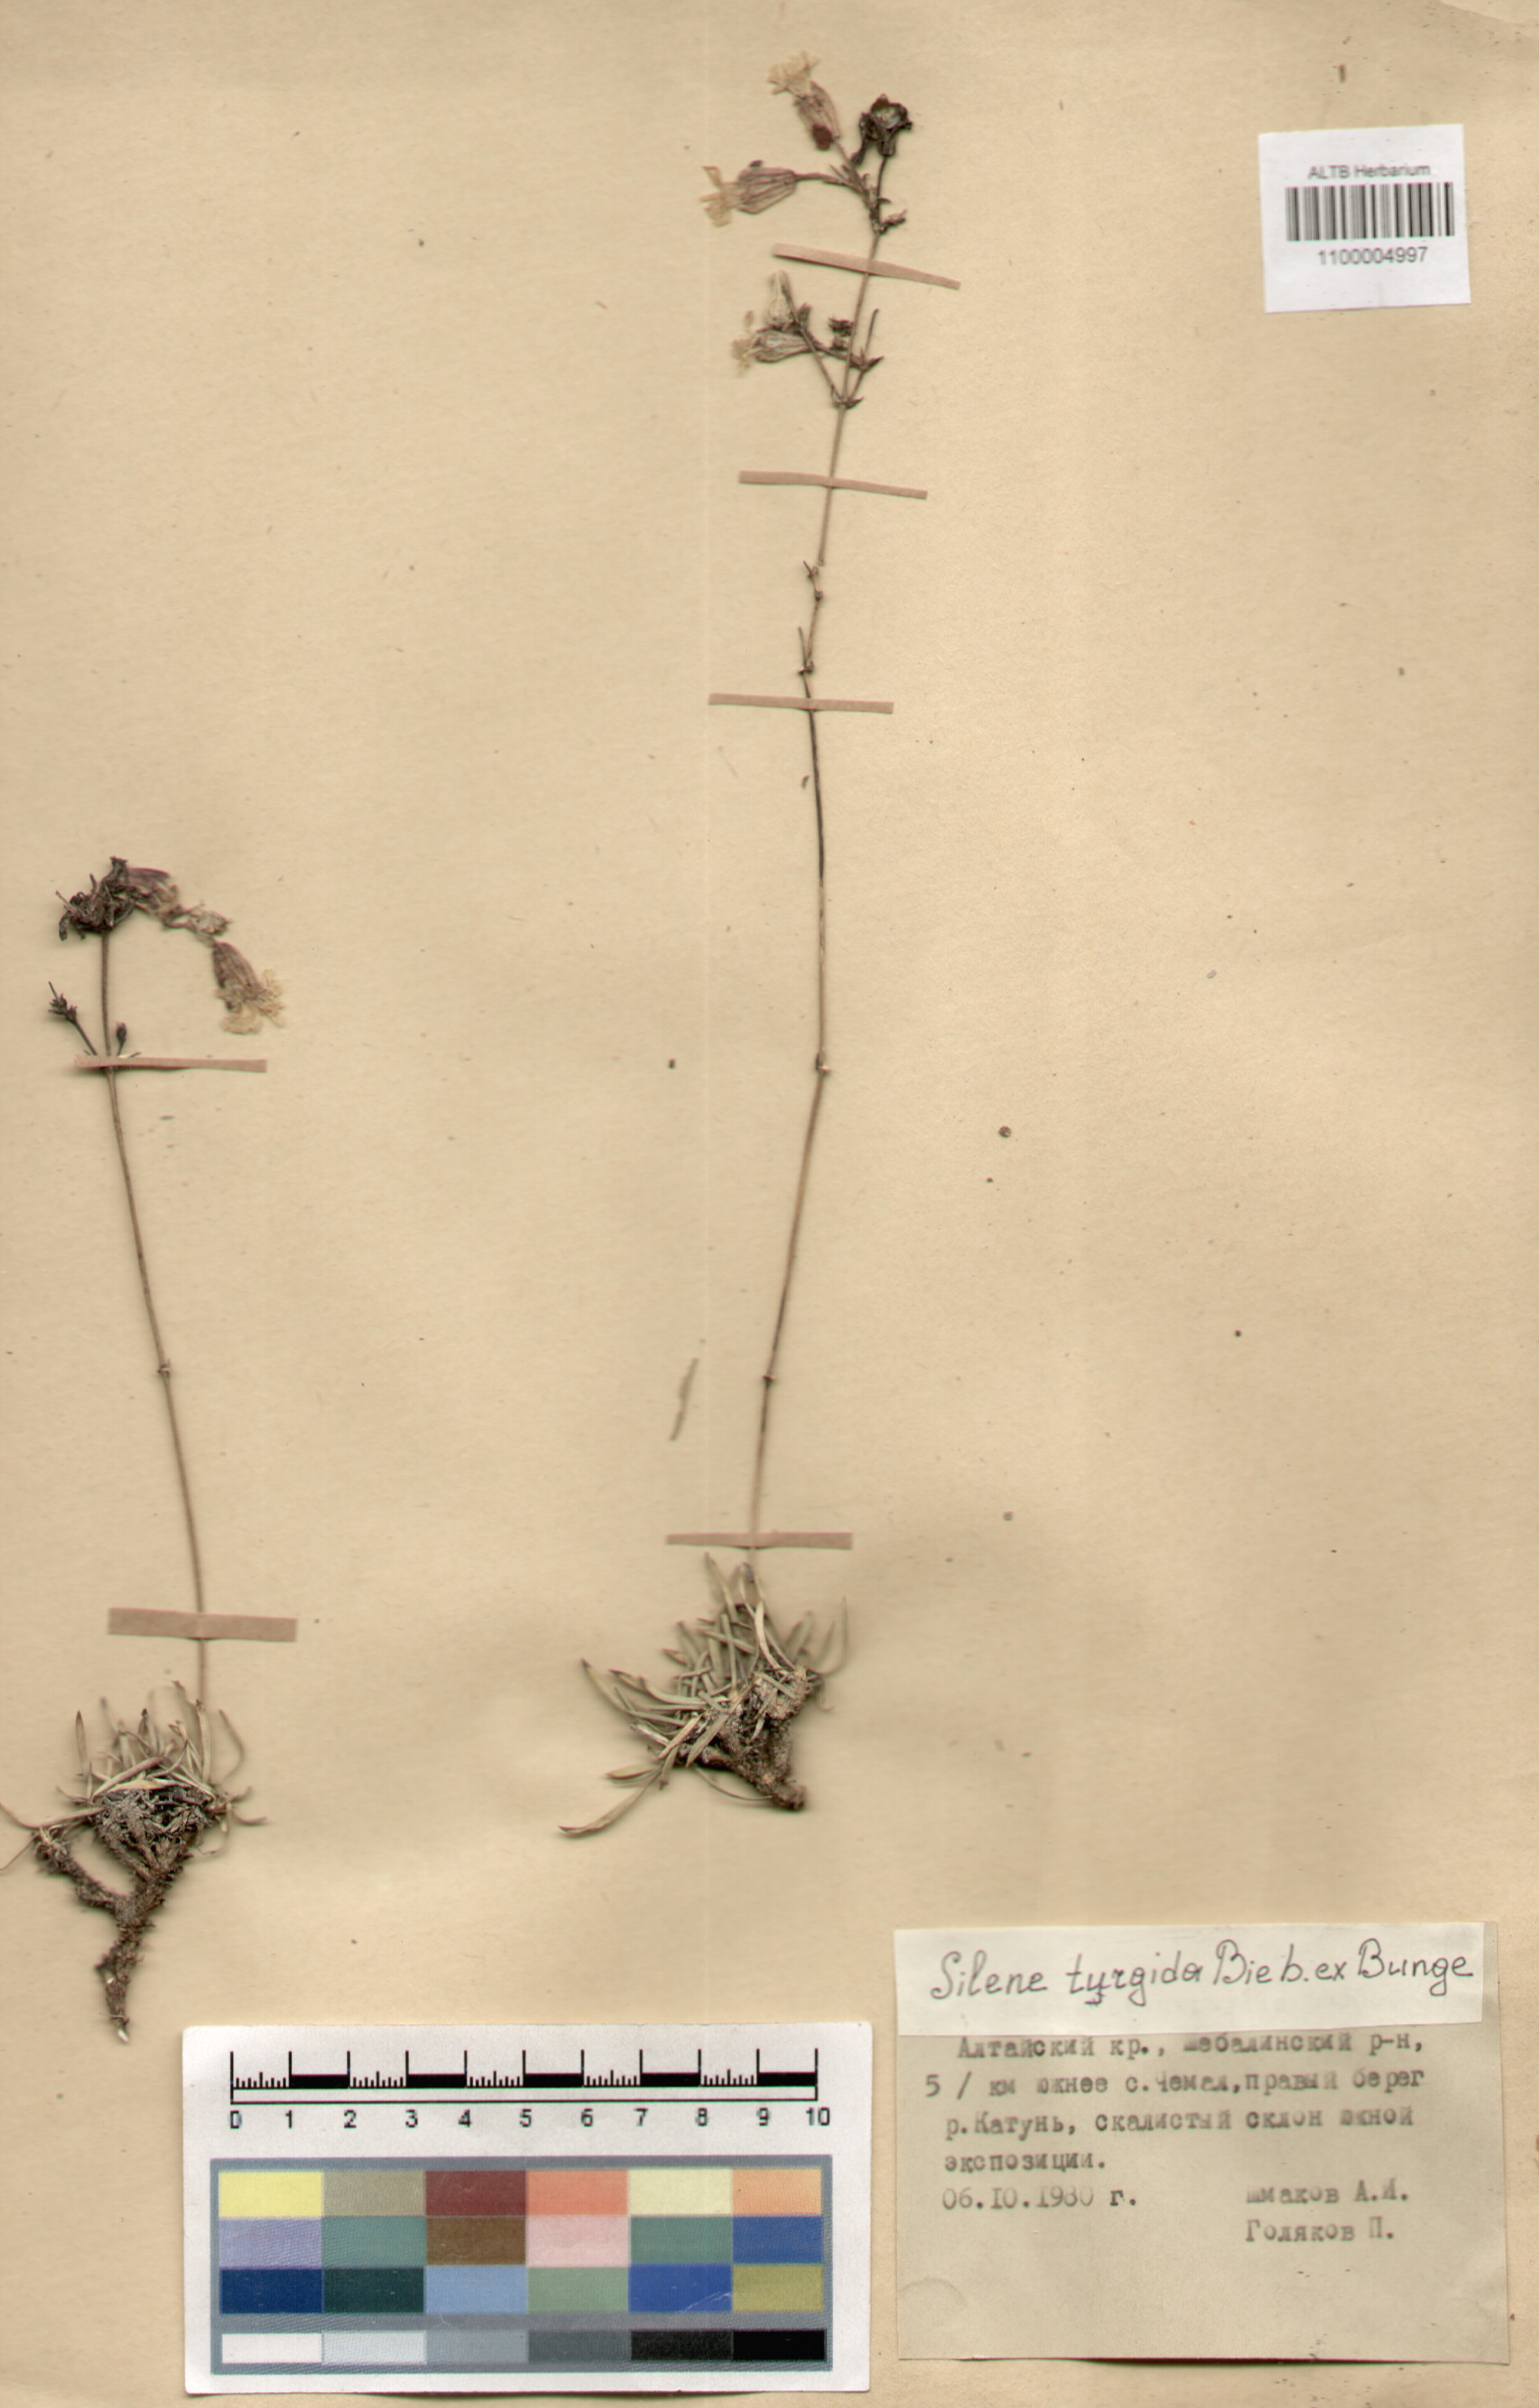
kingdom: Plantae
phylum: Tracheophyta
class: Magnoliopsida
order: Caryophyllales
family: Caryophyllaceae
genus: Silene
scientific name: Silene turgida
